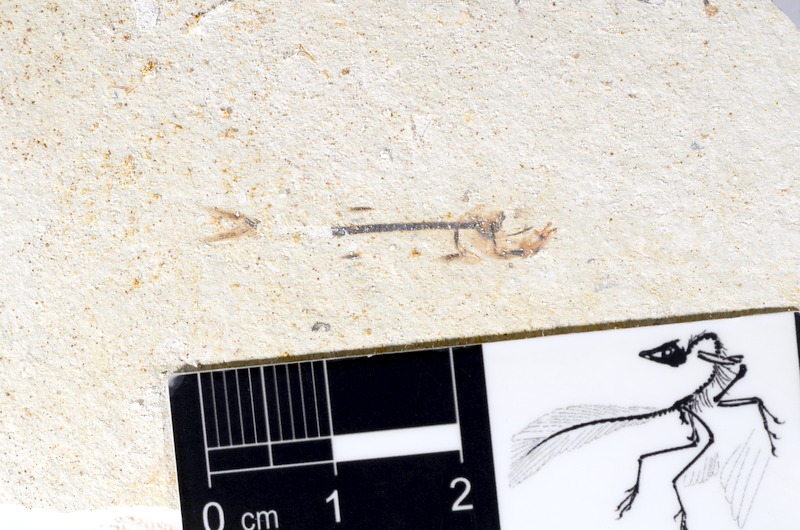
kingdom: Animalia
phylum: Chordata
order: Salmoniformes
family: Orthogonikleithridae
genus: Orthogonikleithrus
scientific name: Orthogonikleithrus hoelli
